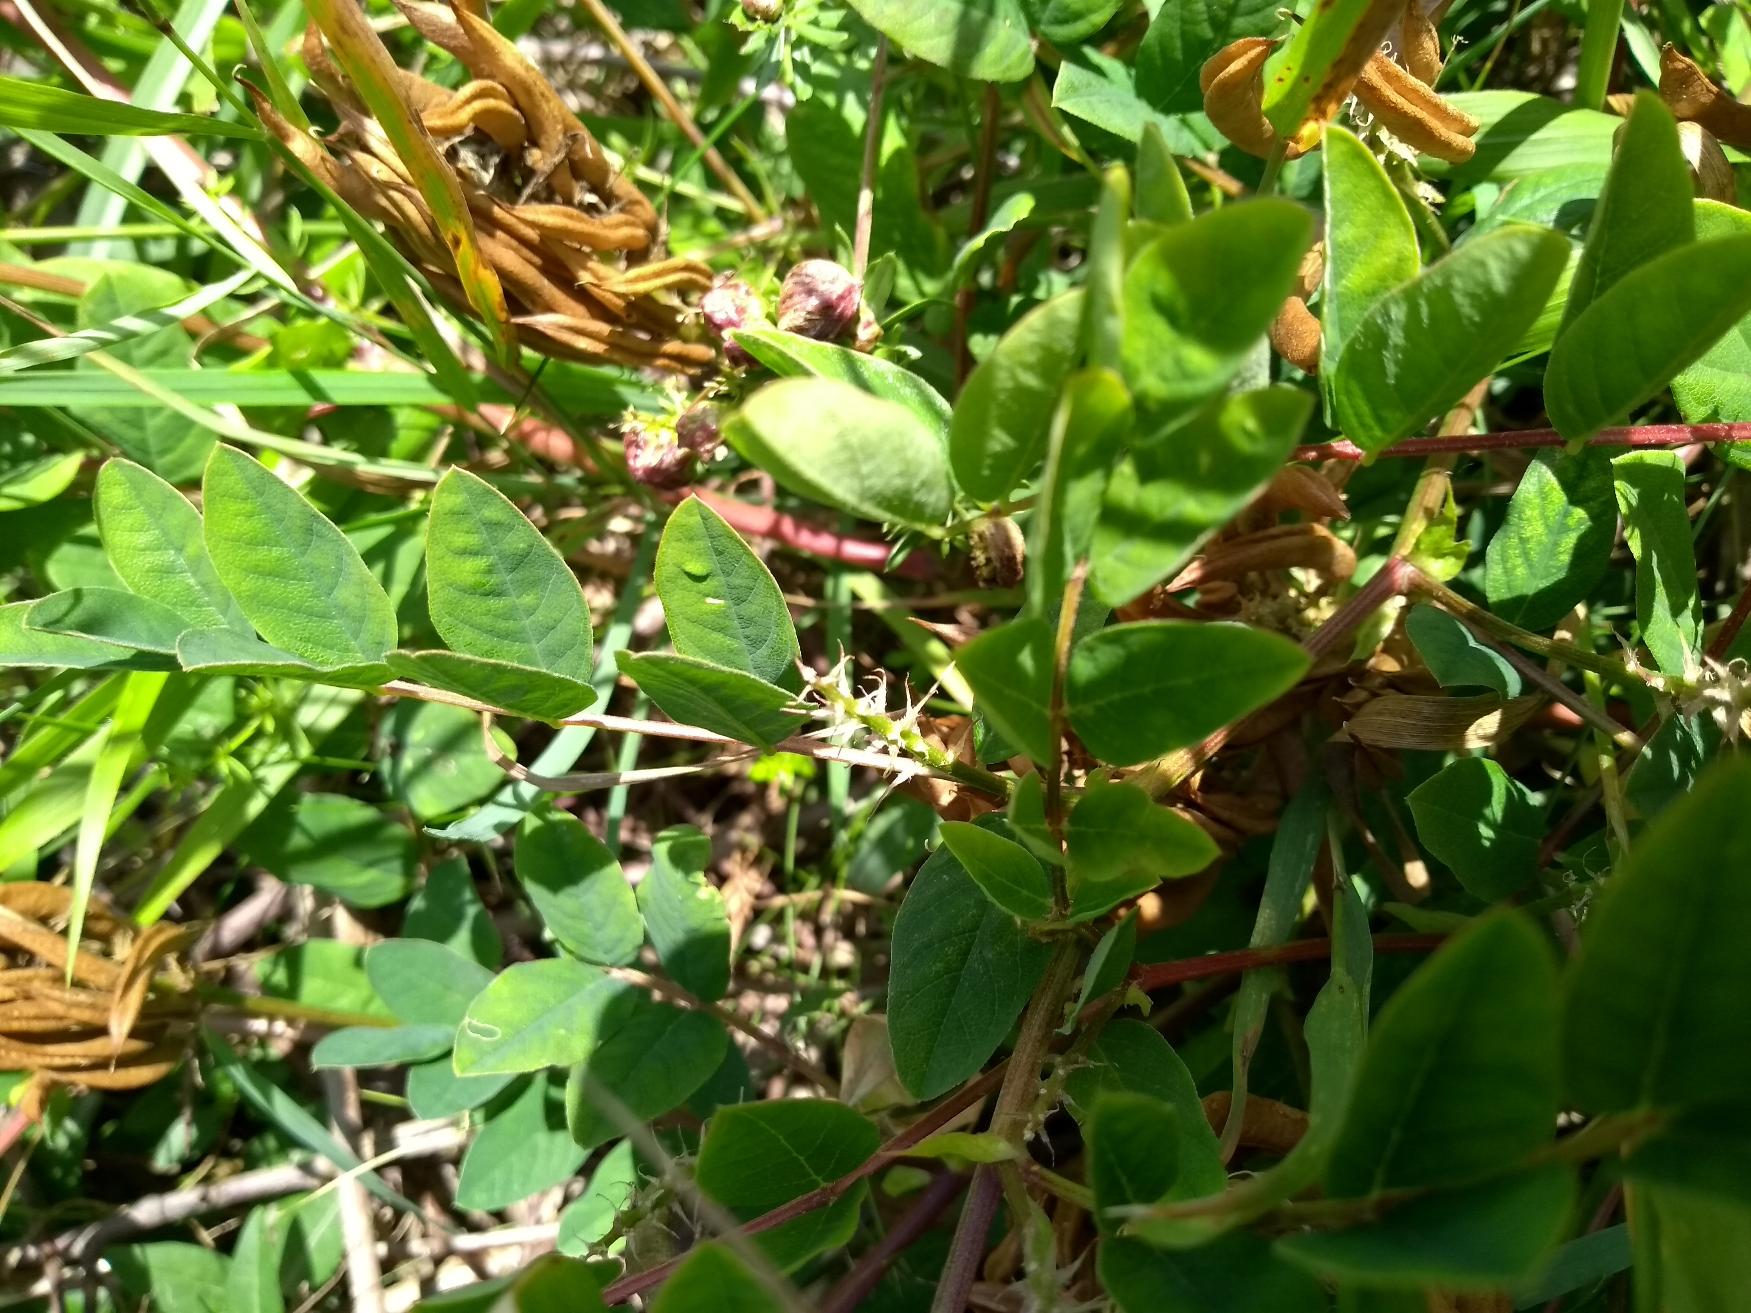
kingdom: Plantae
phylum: Tracheophyta
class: Magnoliopsida
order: Fabales
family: Fabaceae
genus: Astragalus
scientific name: Astragalus glycyphyllos
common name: Sød astragel
